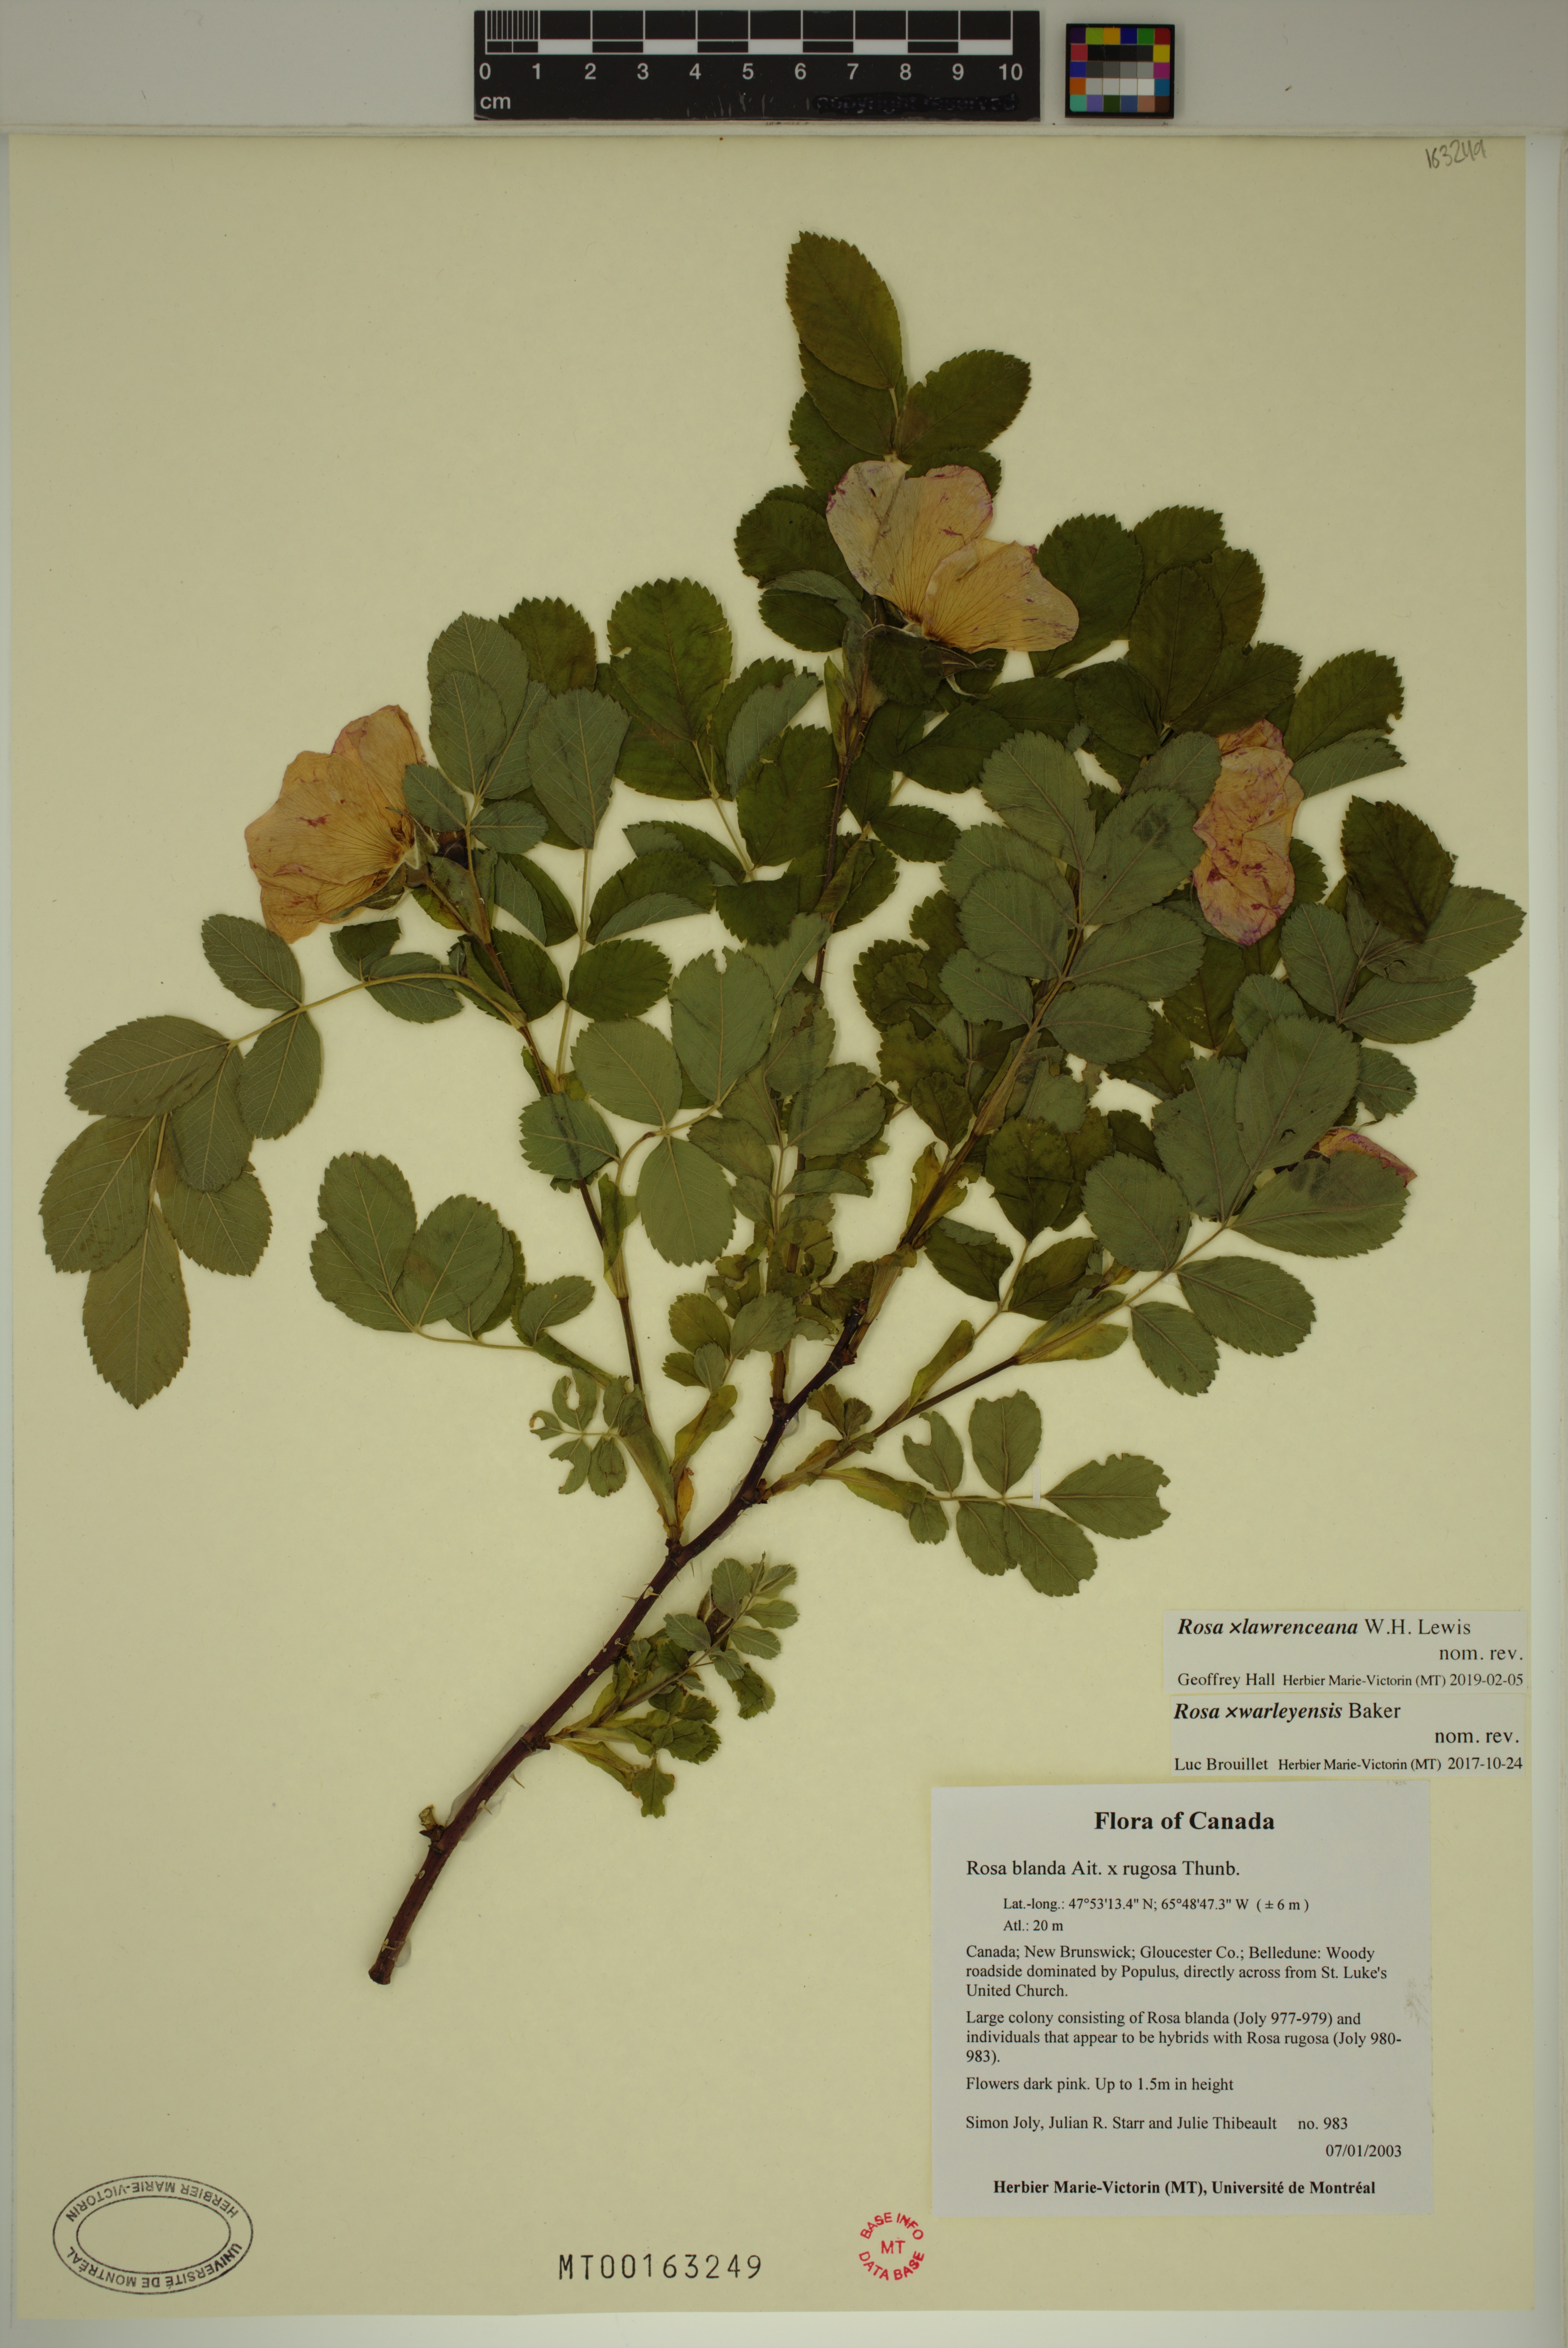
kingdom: Plantae
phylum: Tracheophyta
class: Magnoliopsida
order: Rosales
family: Rosaceae
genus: Rosa
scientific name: Rosa chinensis
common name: China rose
